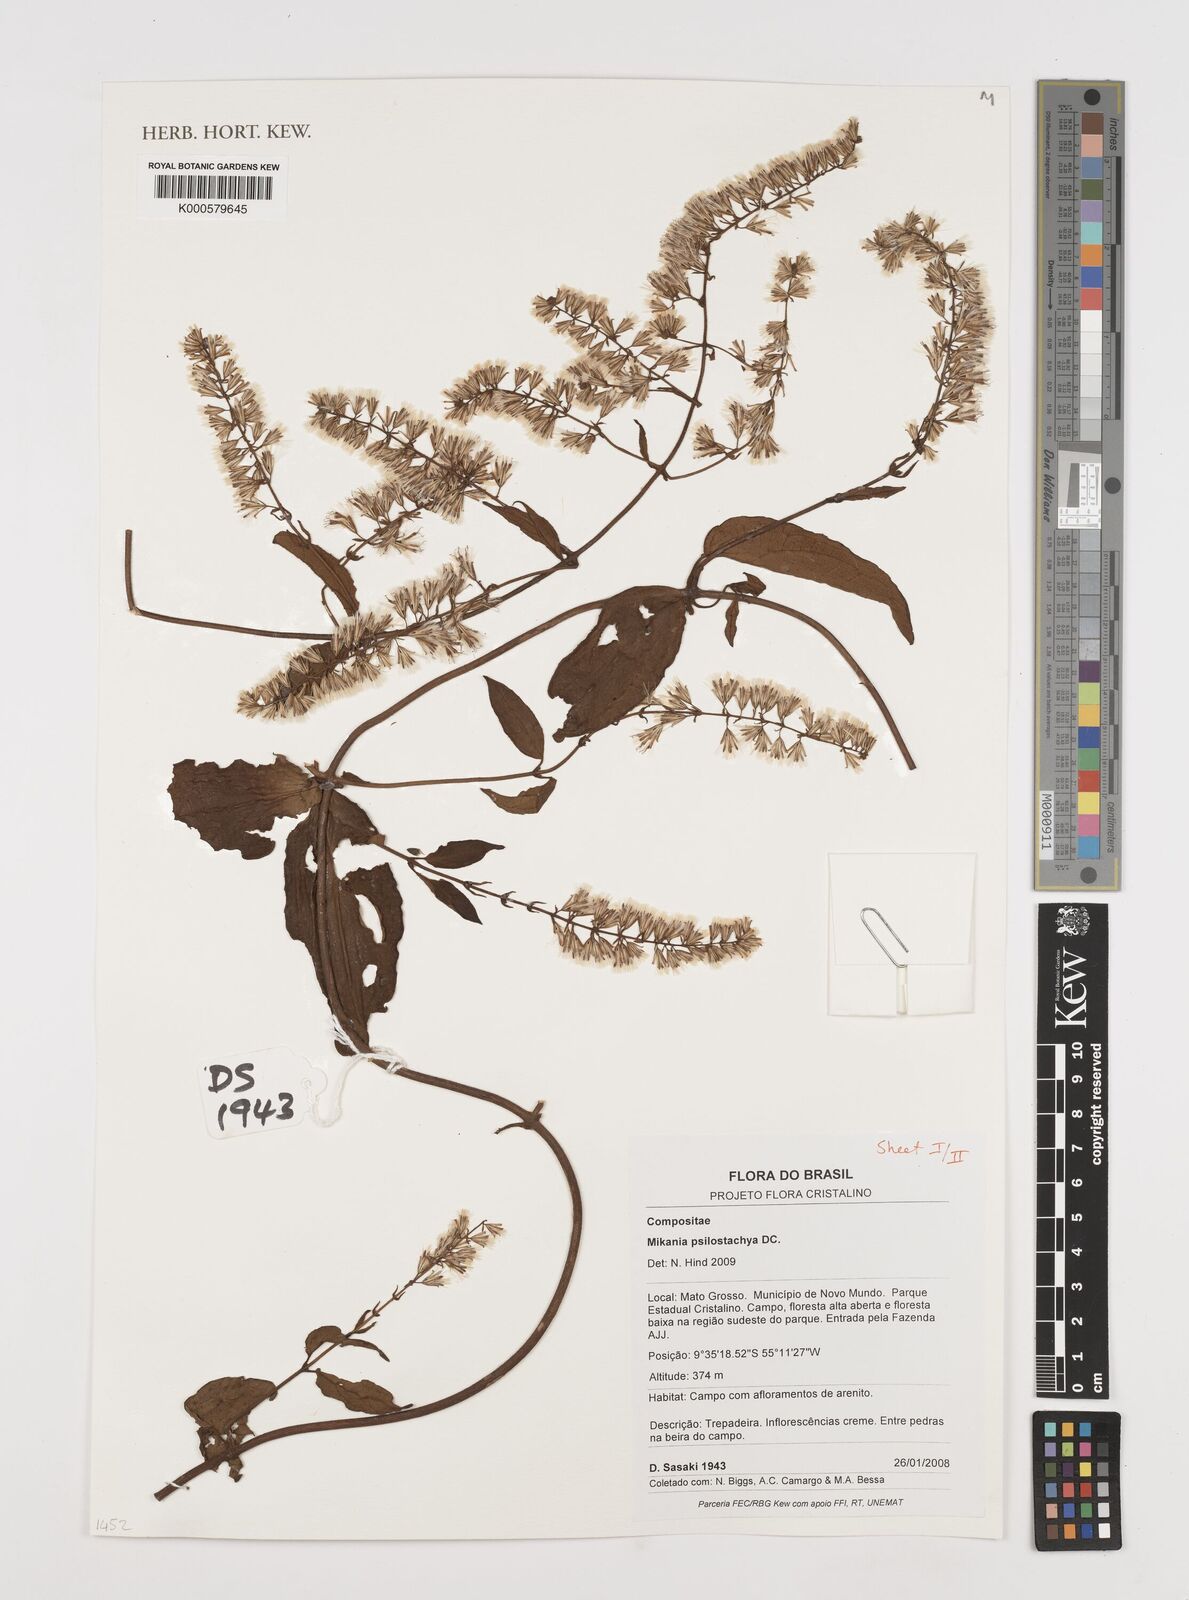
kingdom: Plantae
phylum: Tracheophyta
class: Magnoliopsida
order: Asterales
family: Asteraceae
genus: Mikania
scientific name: Mikania psilostachya
